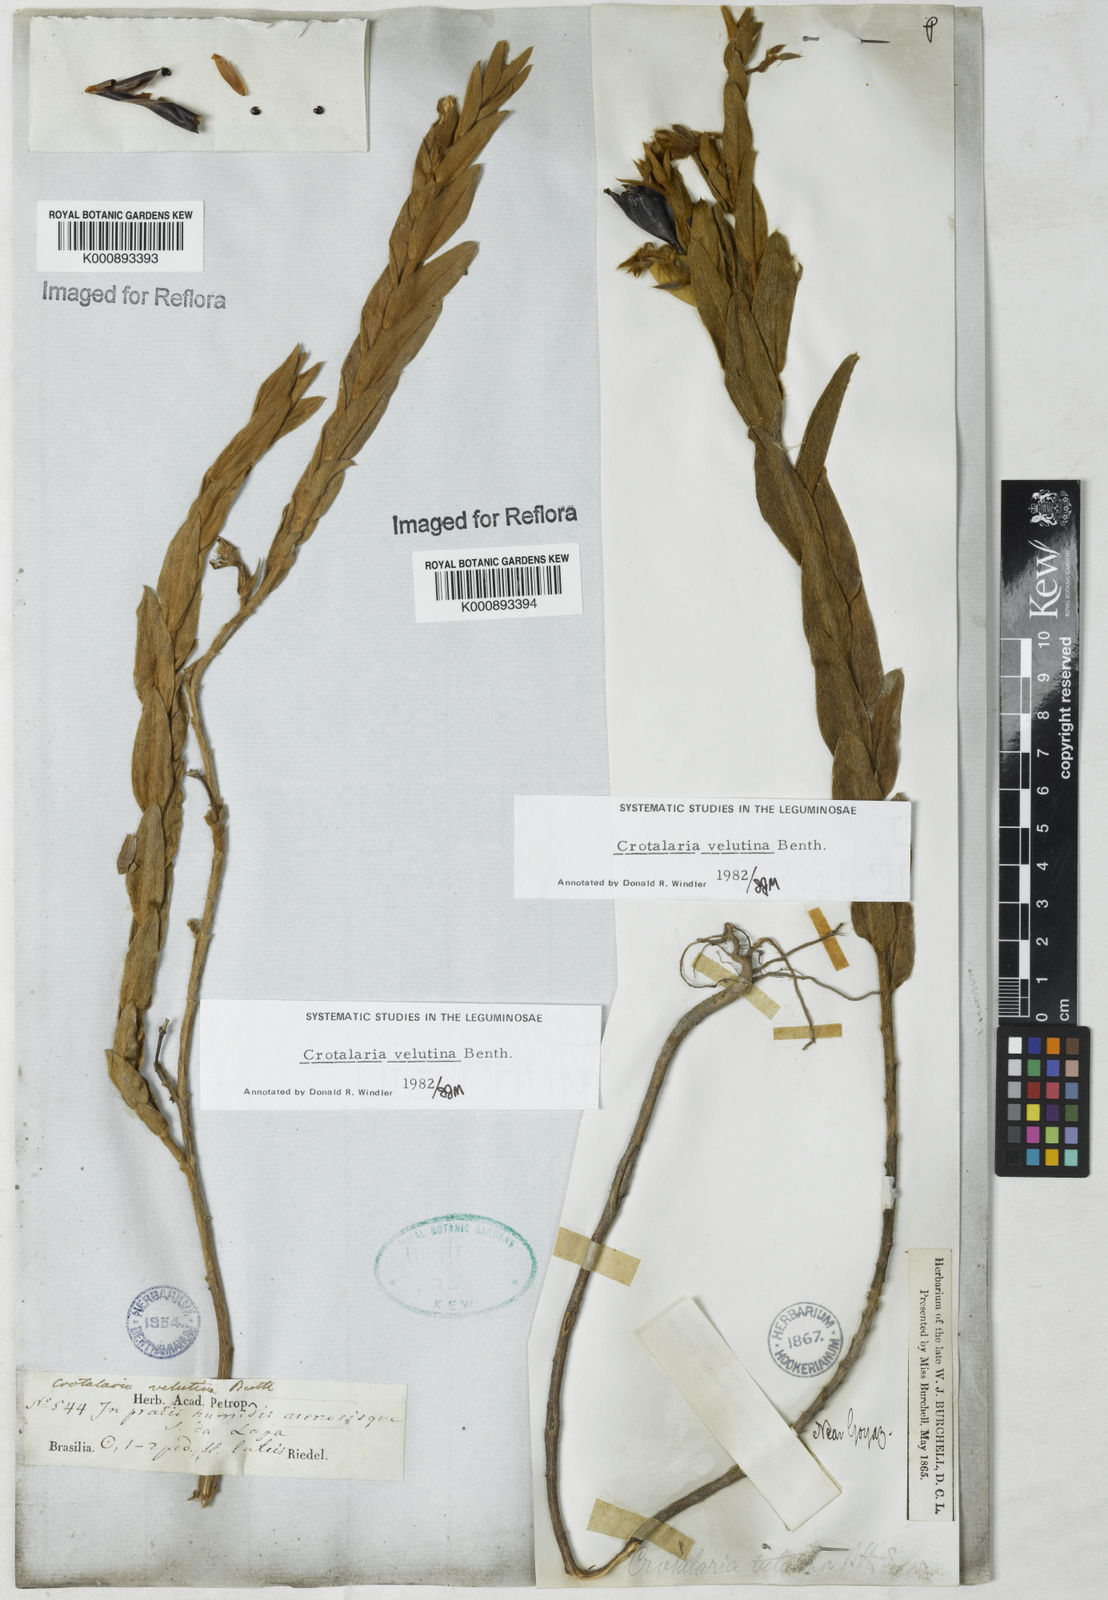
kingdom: Plantae
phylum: Tracheophyta
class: Magnoliopsida
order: Fabales
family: Fabaceae
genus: Crotalaria
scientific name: Crotalaria velutina
